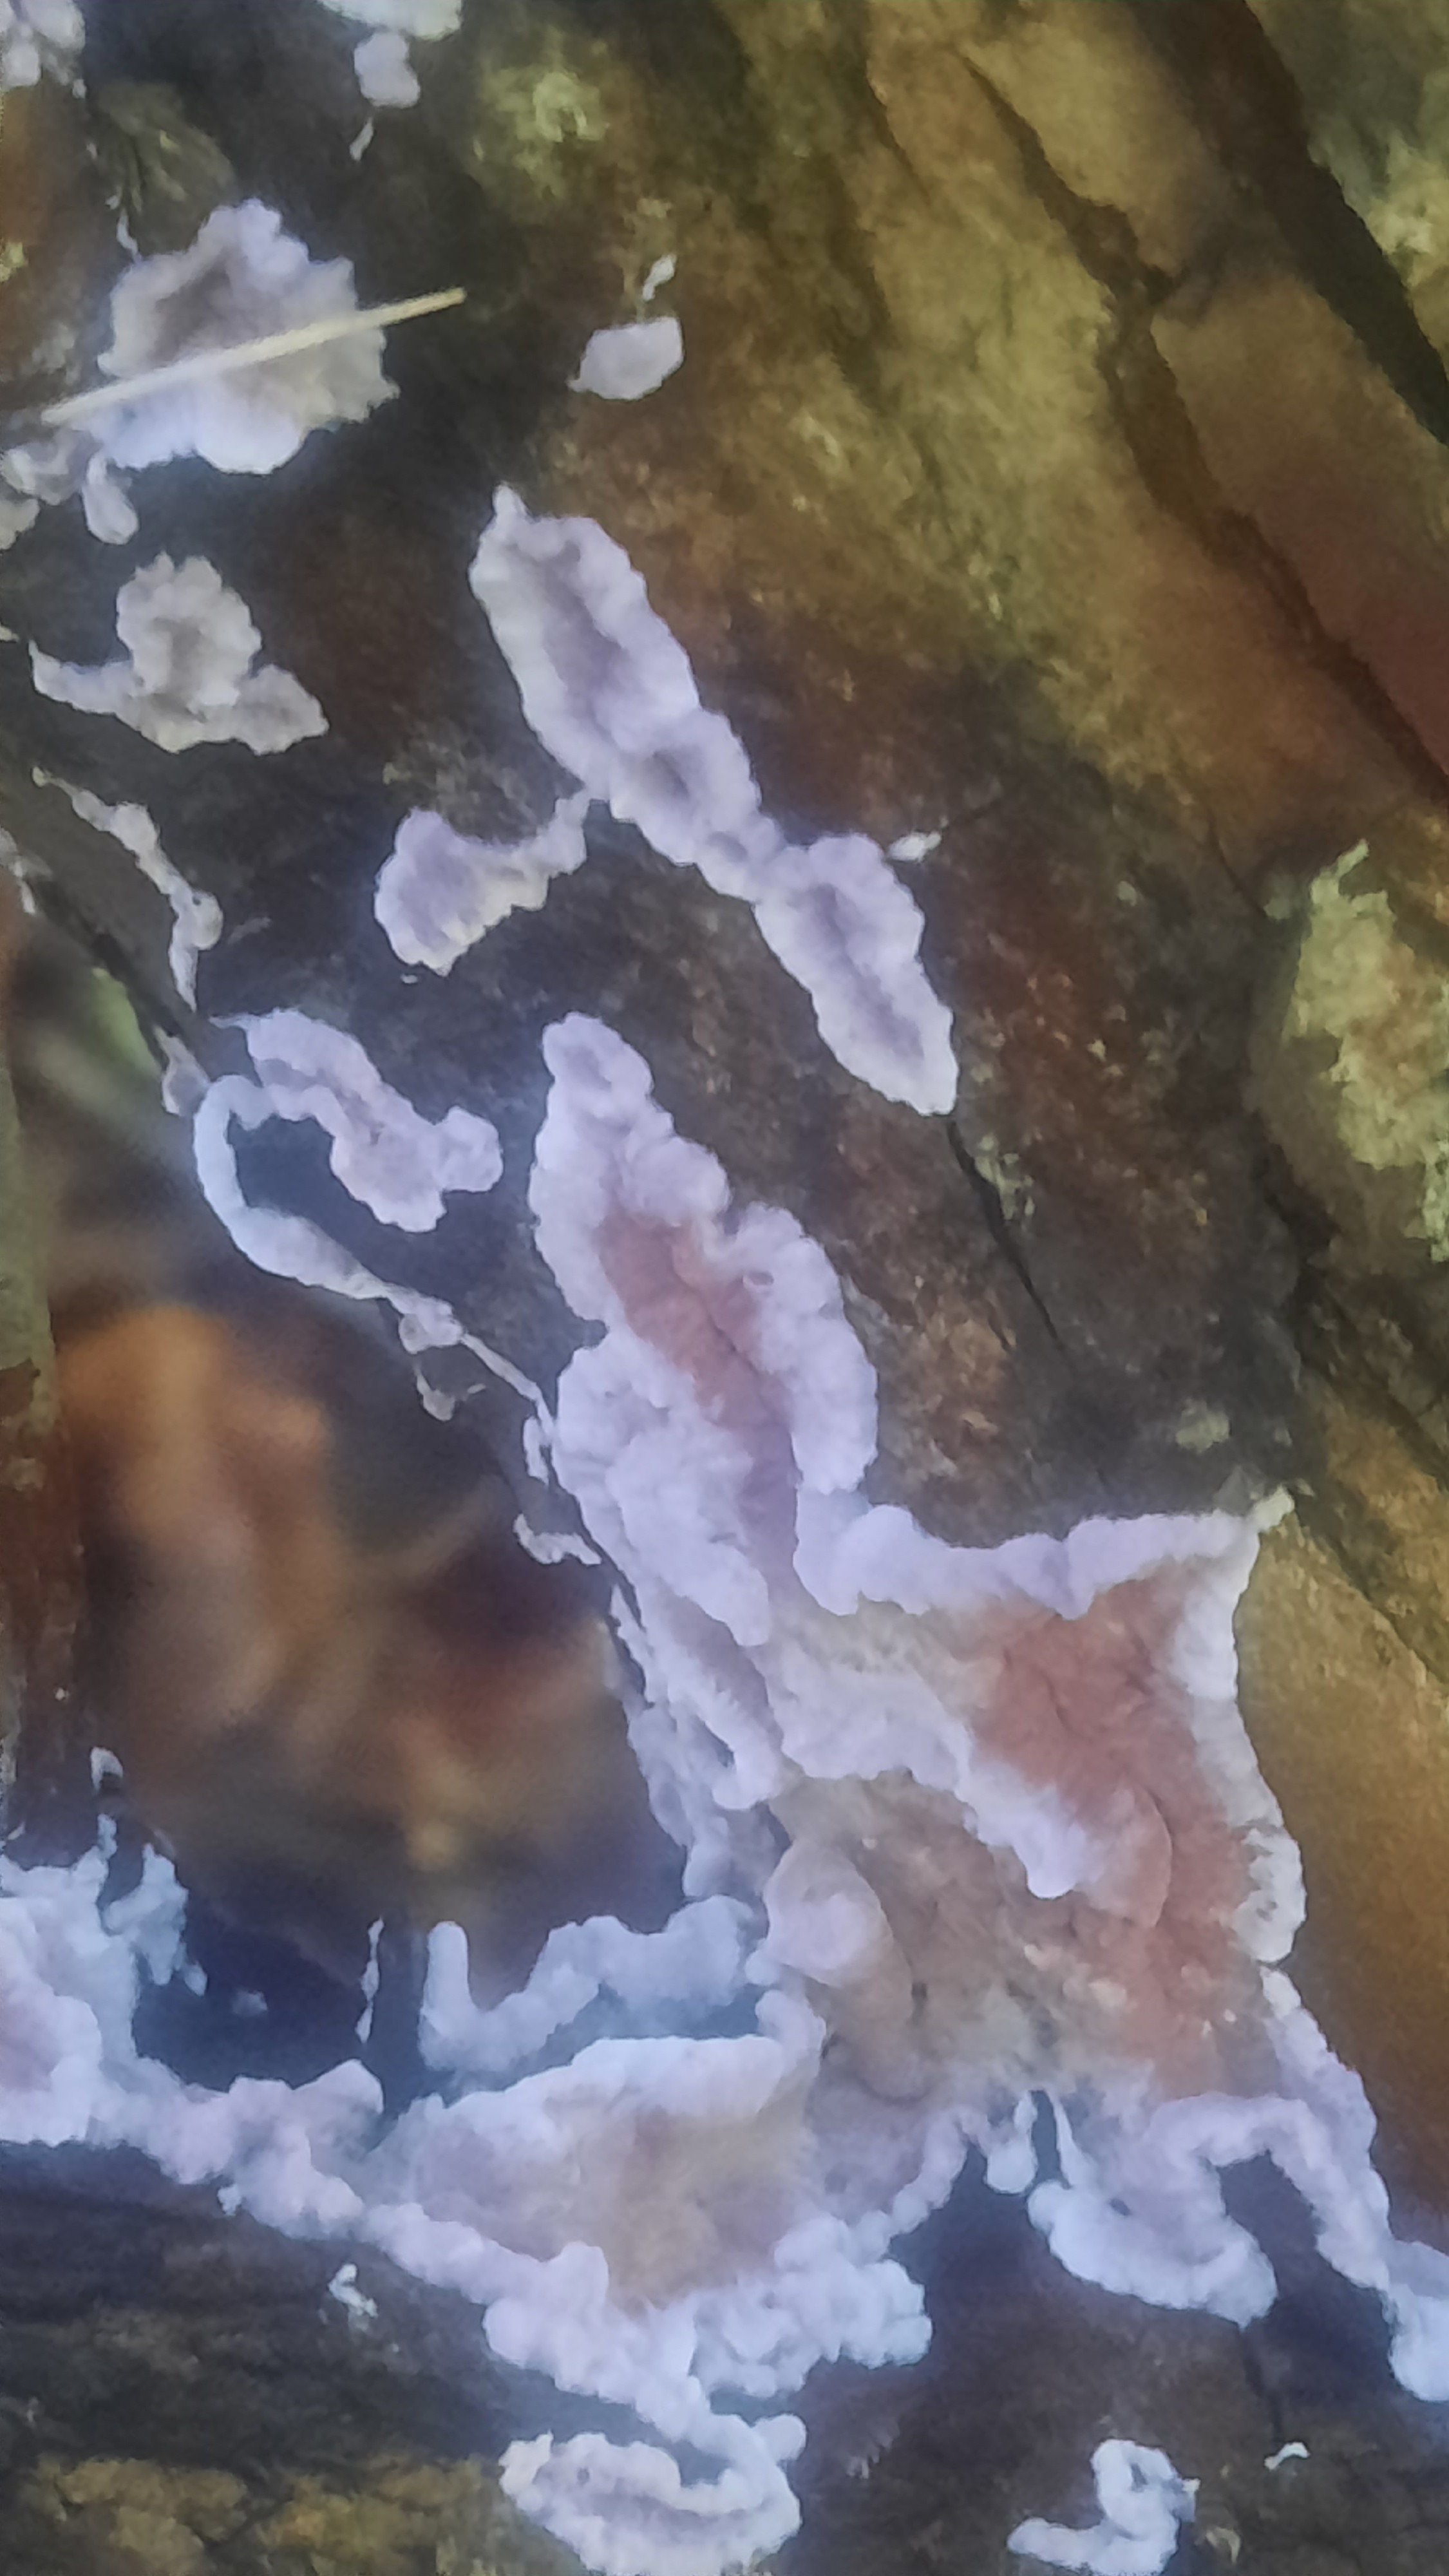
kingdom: Fungi
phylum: Basidiomycota
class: Agaricomycetes
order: Agaricales
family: Cyphellaceae
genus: Chondrostereum
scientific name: Chondrostereum purpureum
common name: purpurlædersvamp
